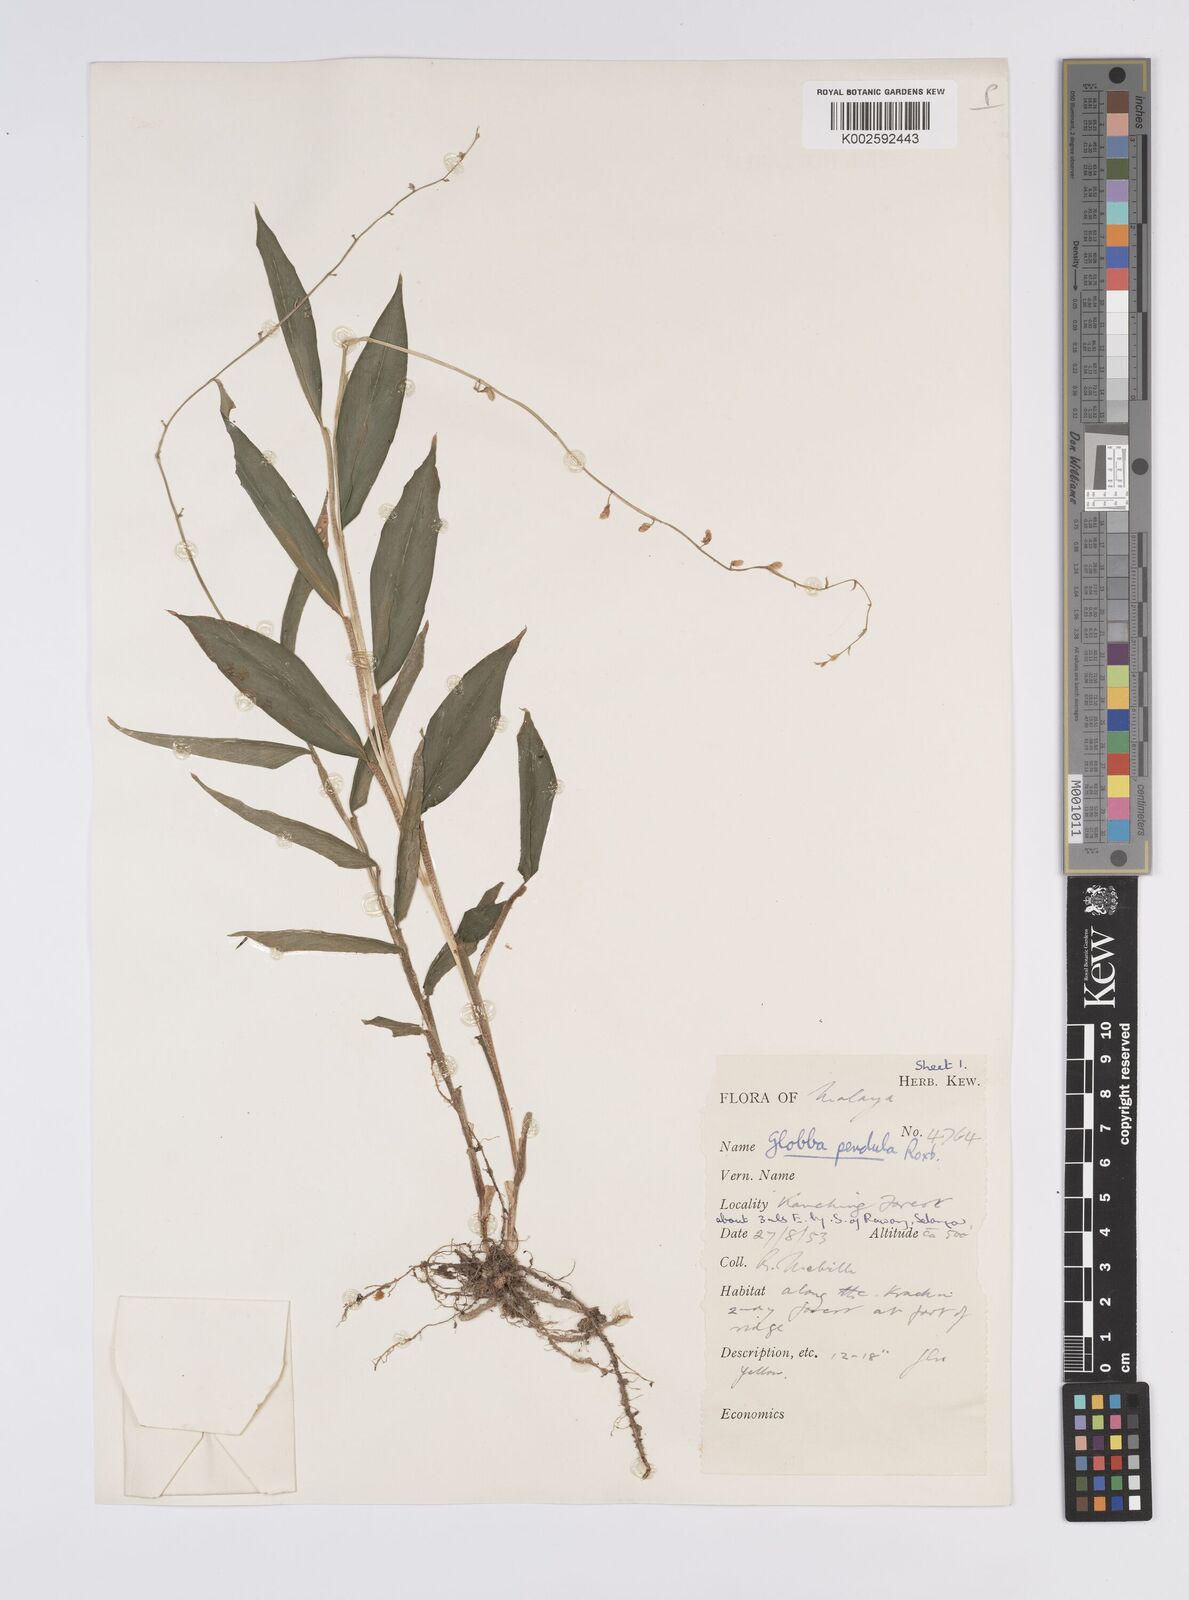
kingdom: Plantae
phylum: Tracheophyta
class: Liliopsida
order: Zingiberales
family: Zingiberaceae
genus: Globba
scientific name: Globba pendula
